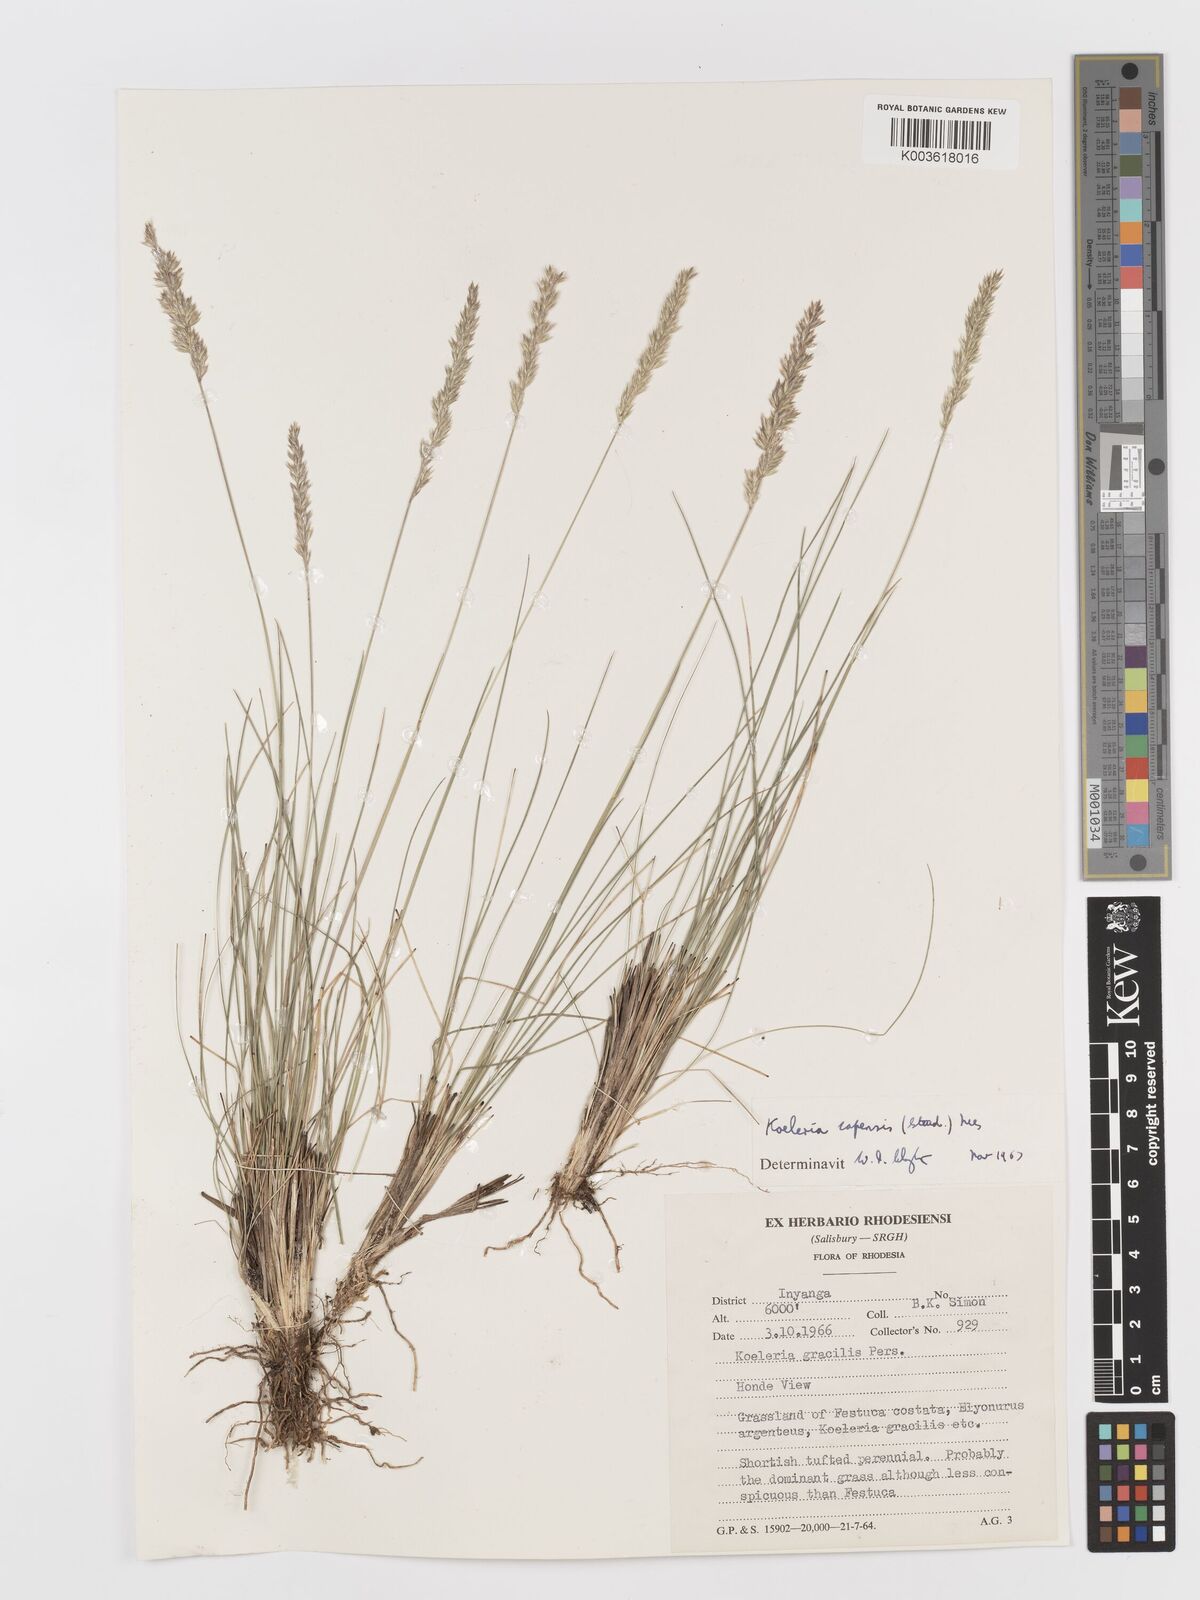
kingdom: Plantae
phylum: Tracheophyta
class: Liliopsida
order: Poales
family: Poaceae
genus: Koeleria
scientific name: Koeleria capensis
